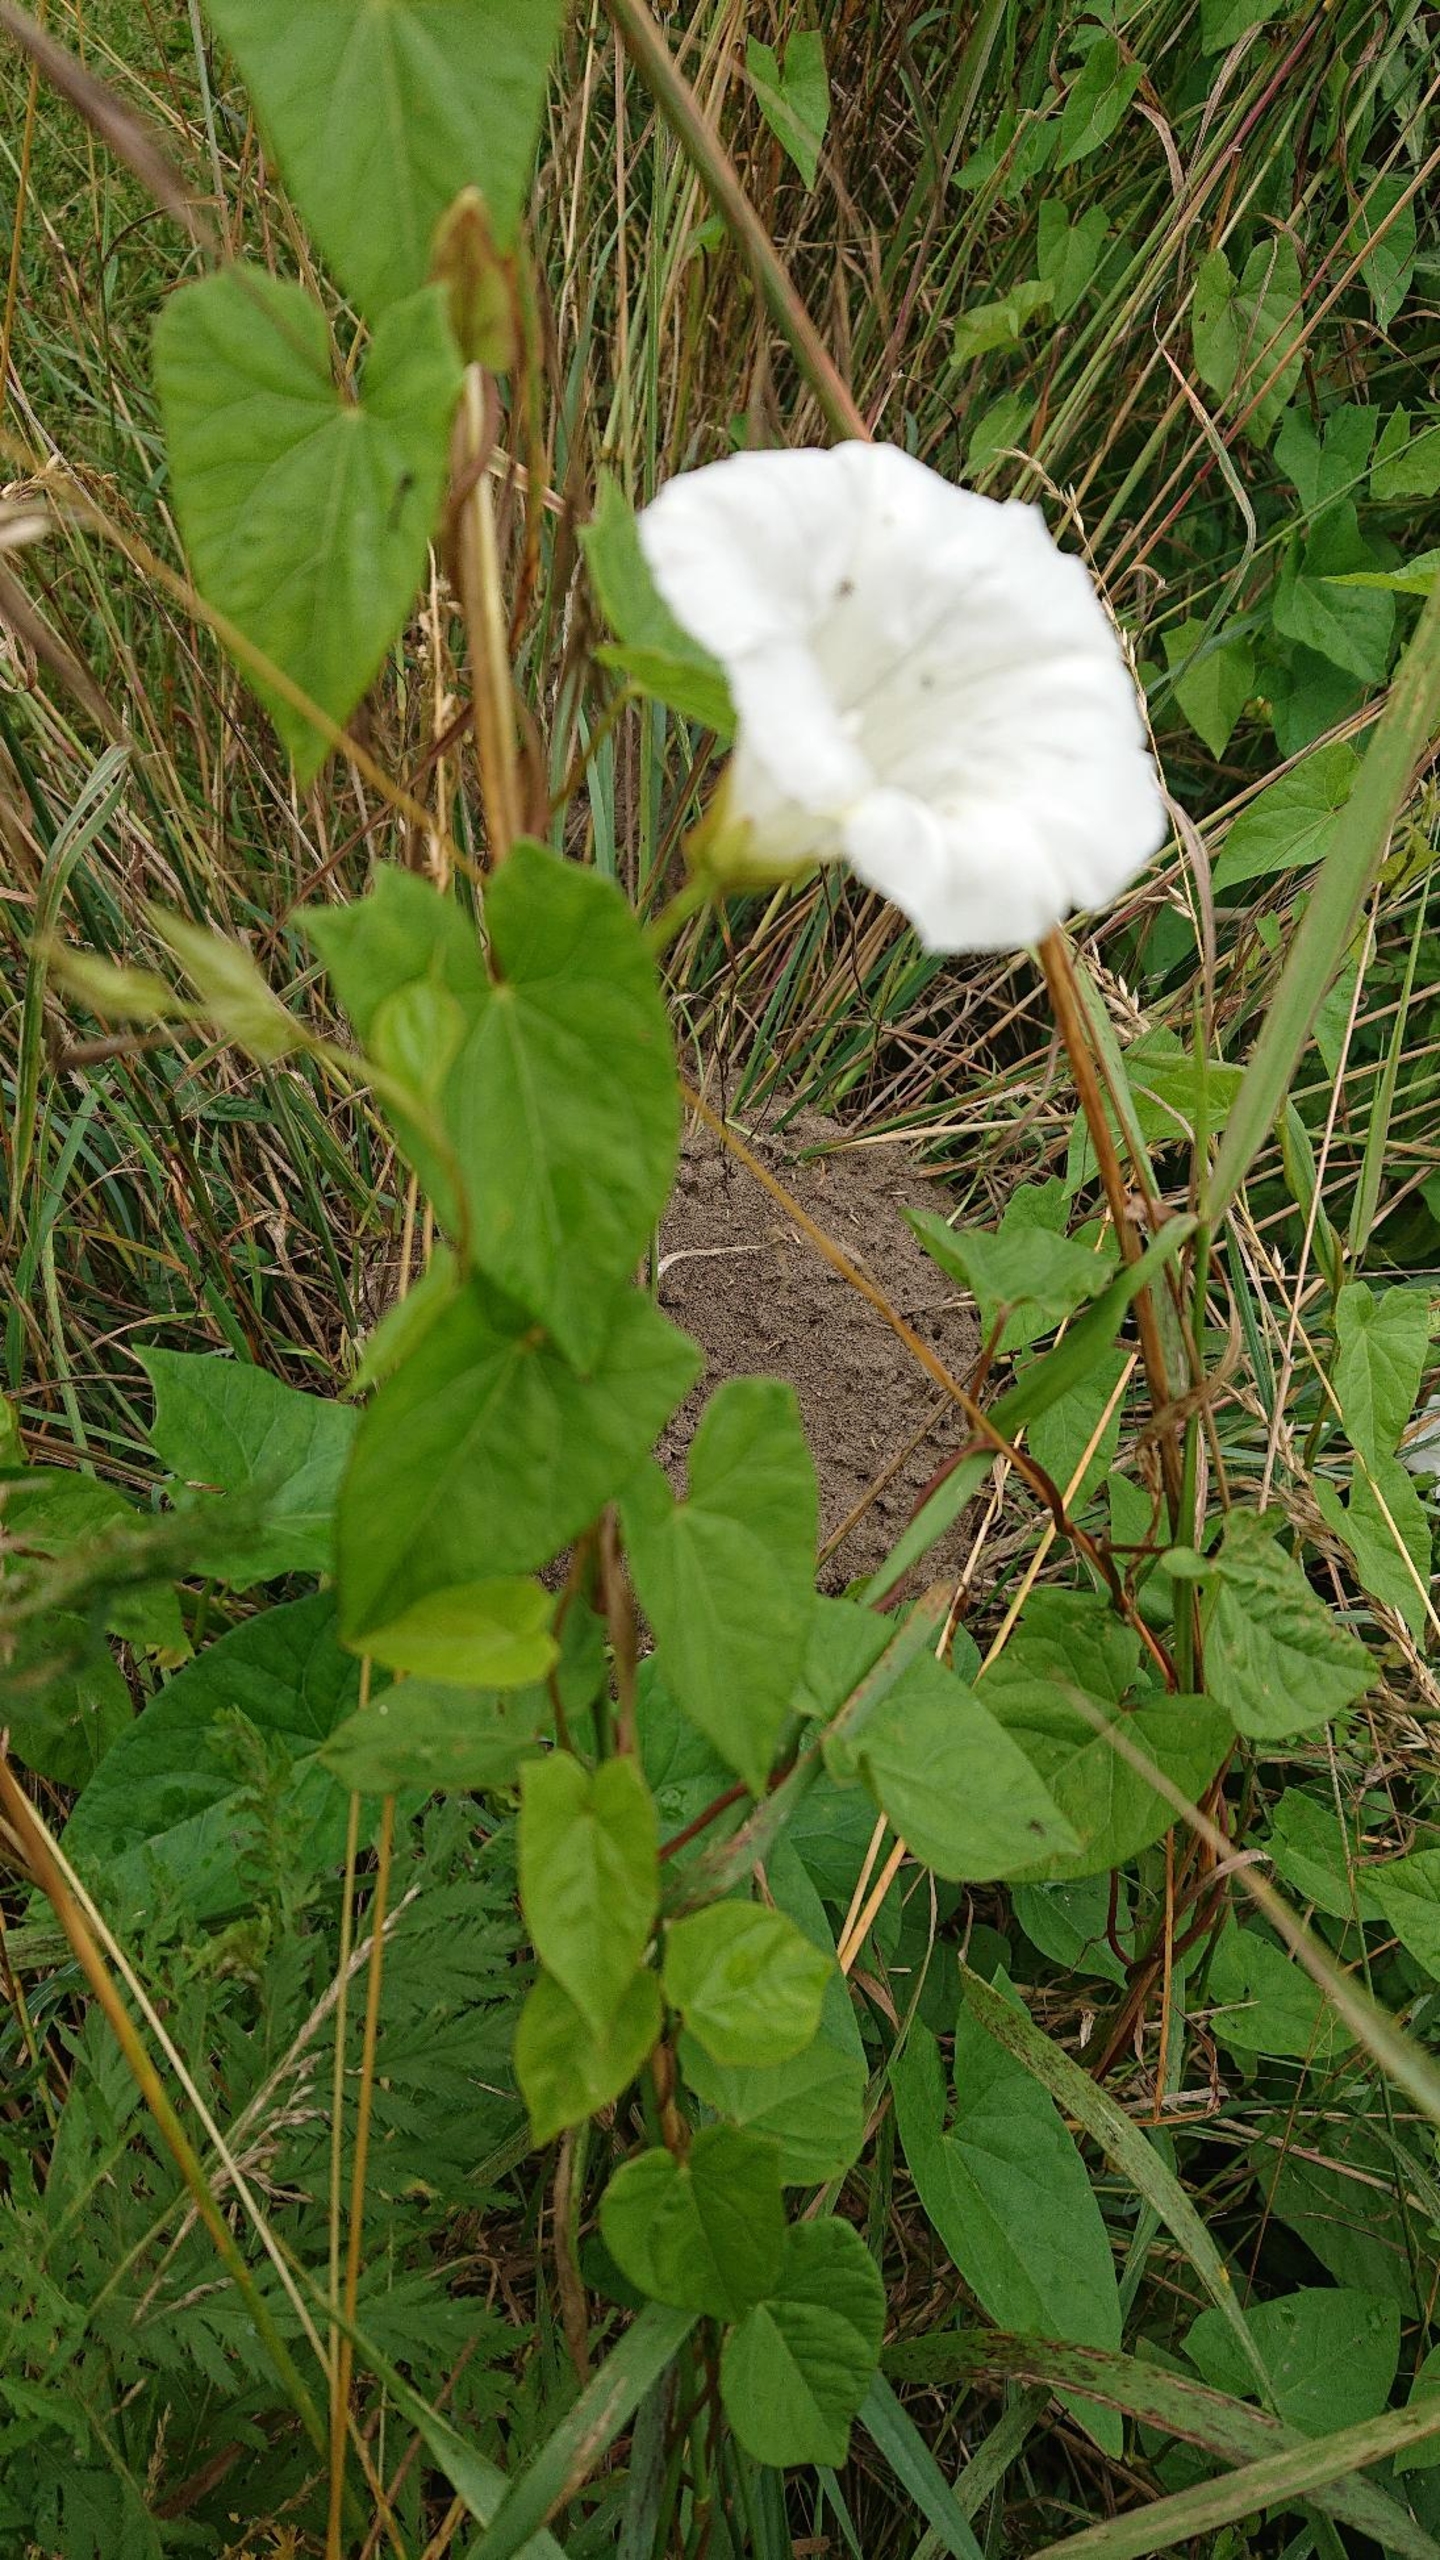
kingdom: Plantae
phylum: Tracheophyta
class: Magnoliopsida
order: Solanales
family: Convolvulaceae
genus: Calystegia
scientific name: Calystegia sepium
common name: Gærde-snerle
